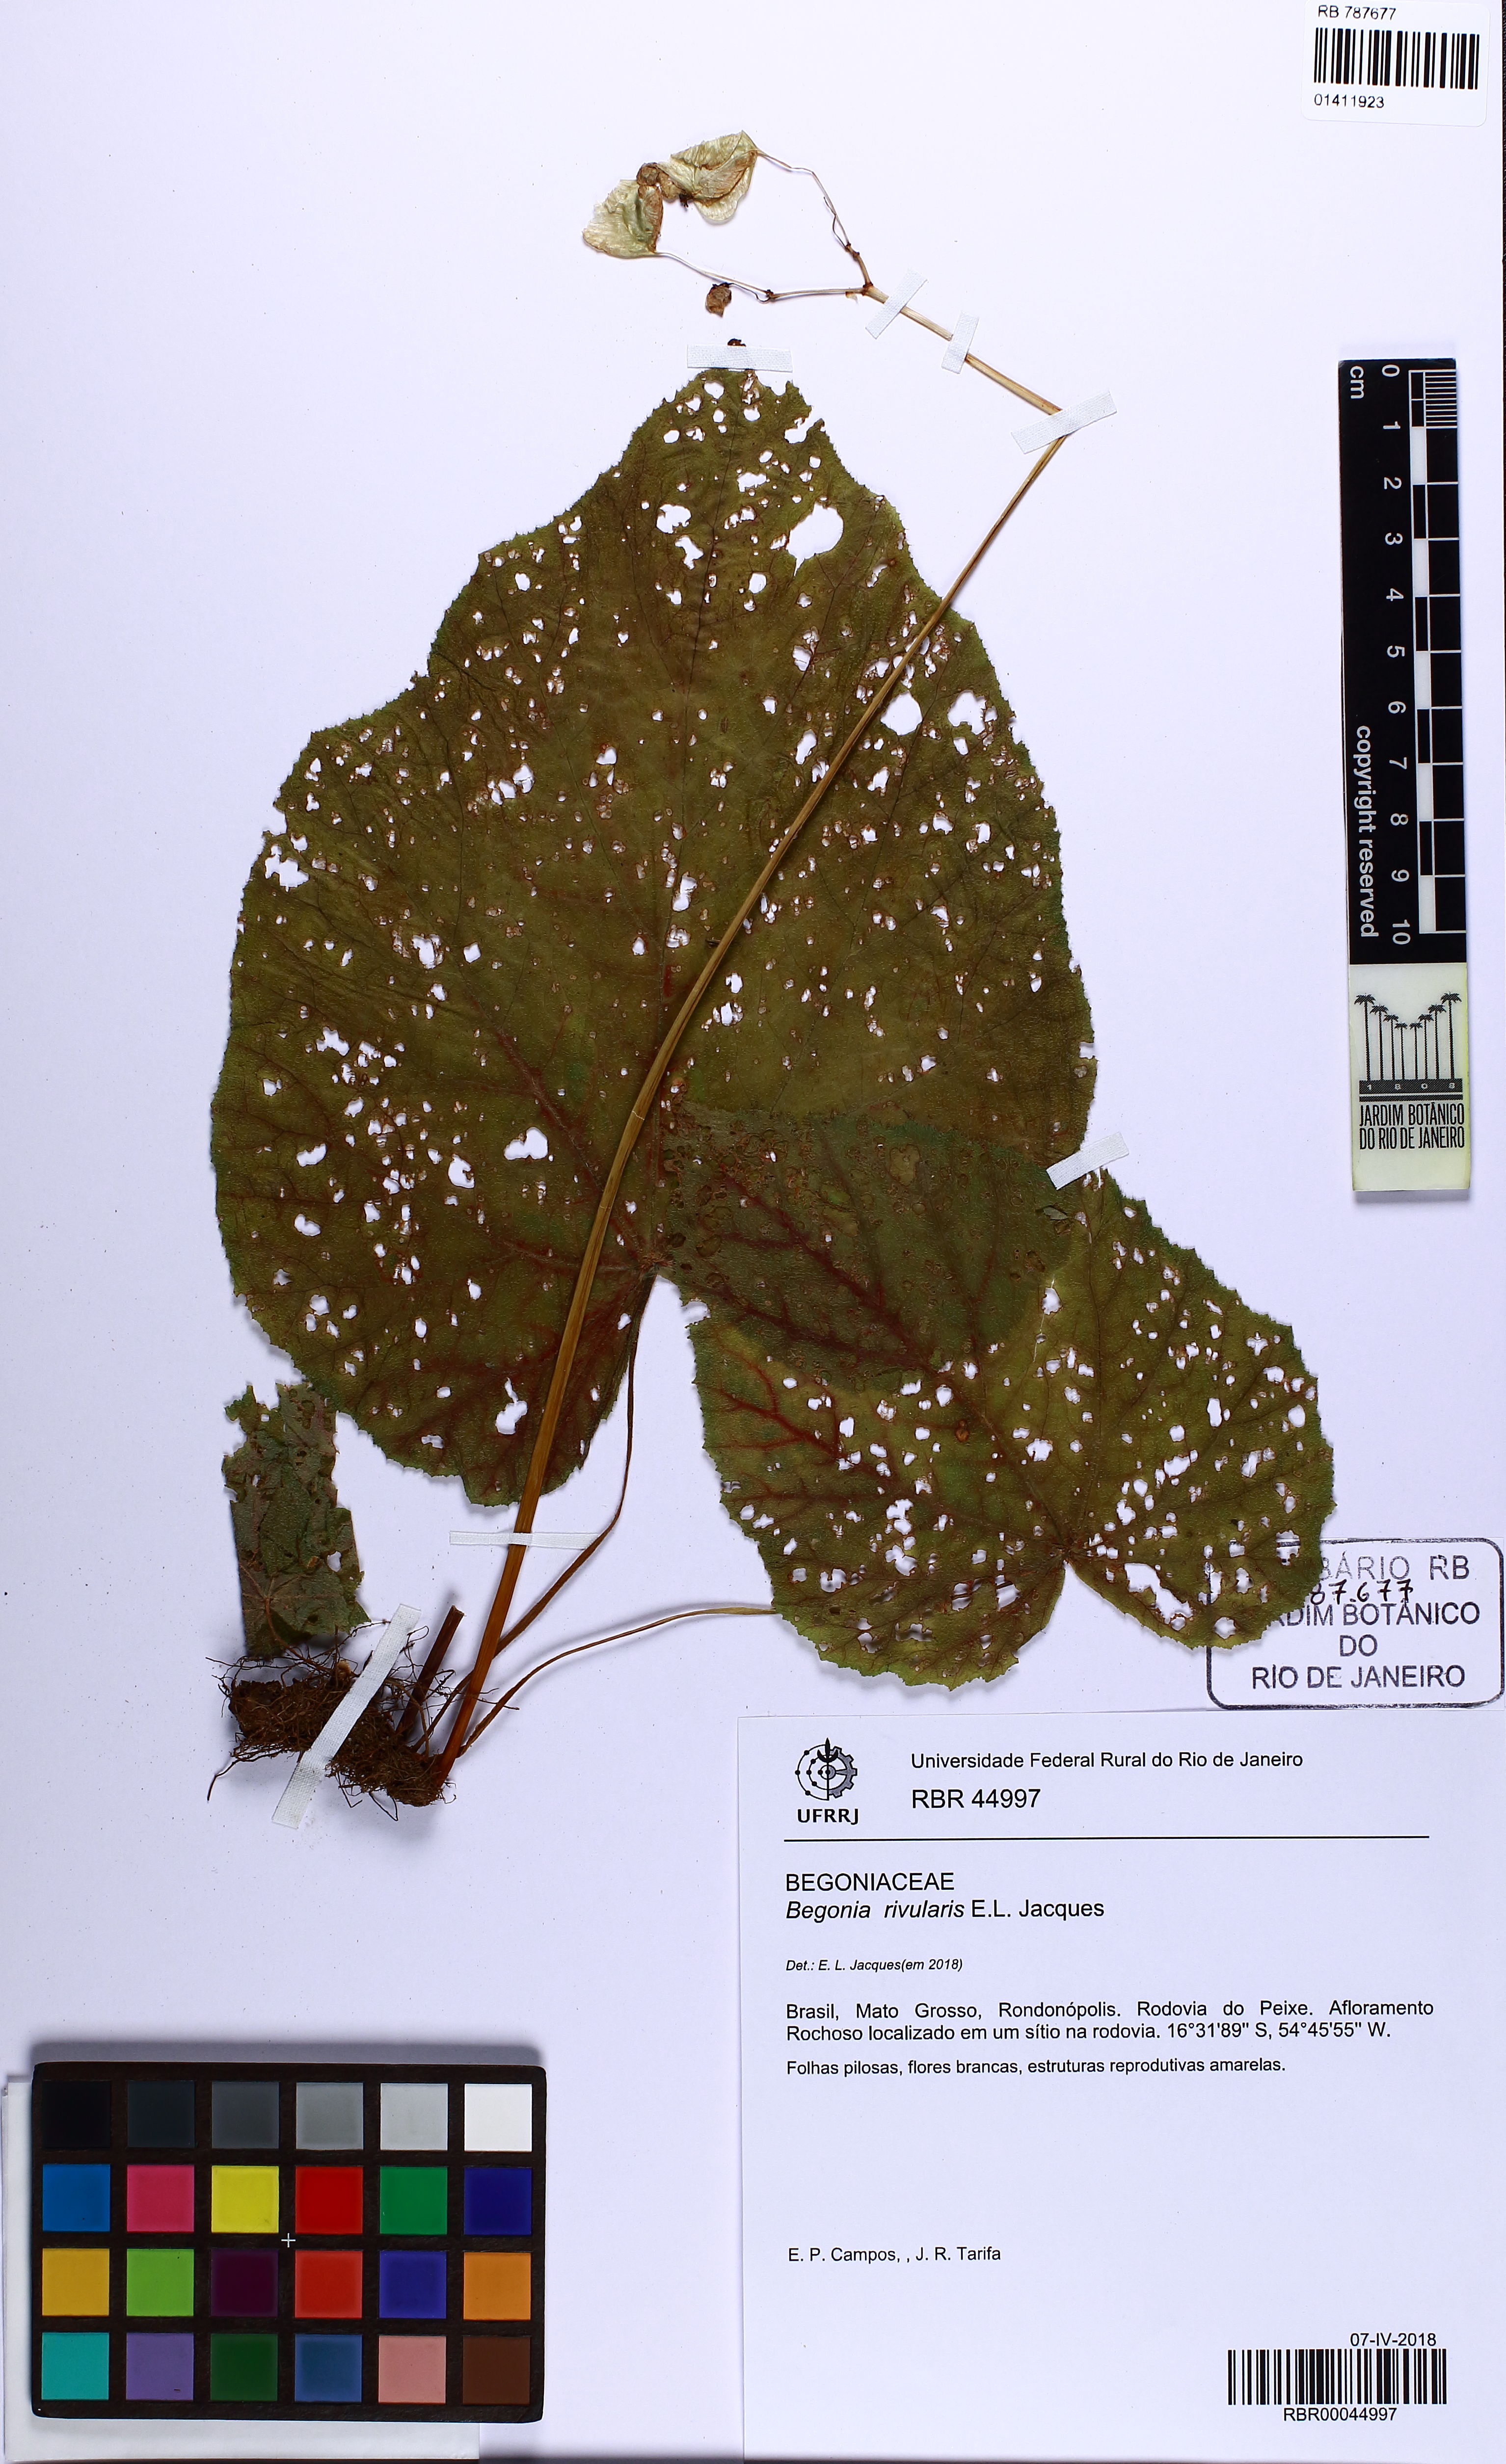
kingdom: Plantae
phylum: Tracheophyta
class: Magnoliopsida
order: Cucurbitales
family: Begoniaceae
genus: Begonia
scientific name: Begonia rivularis
